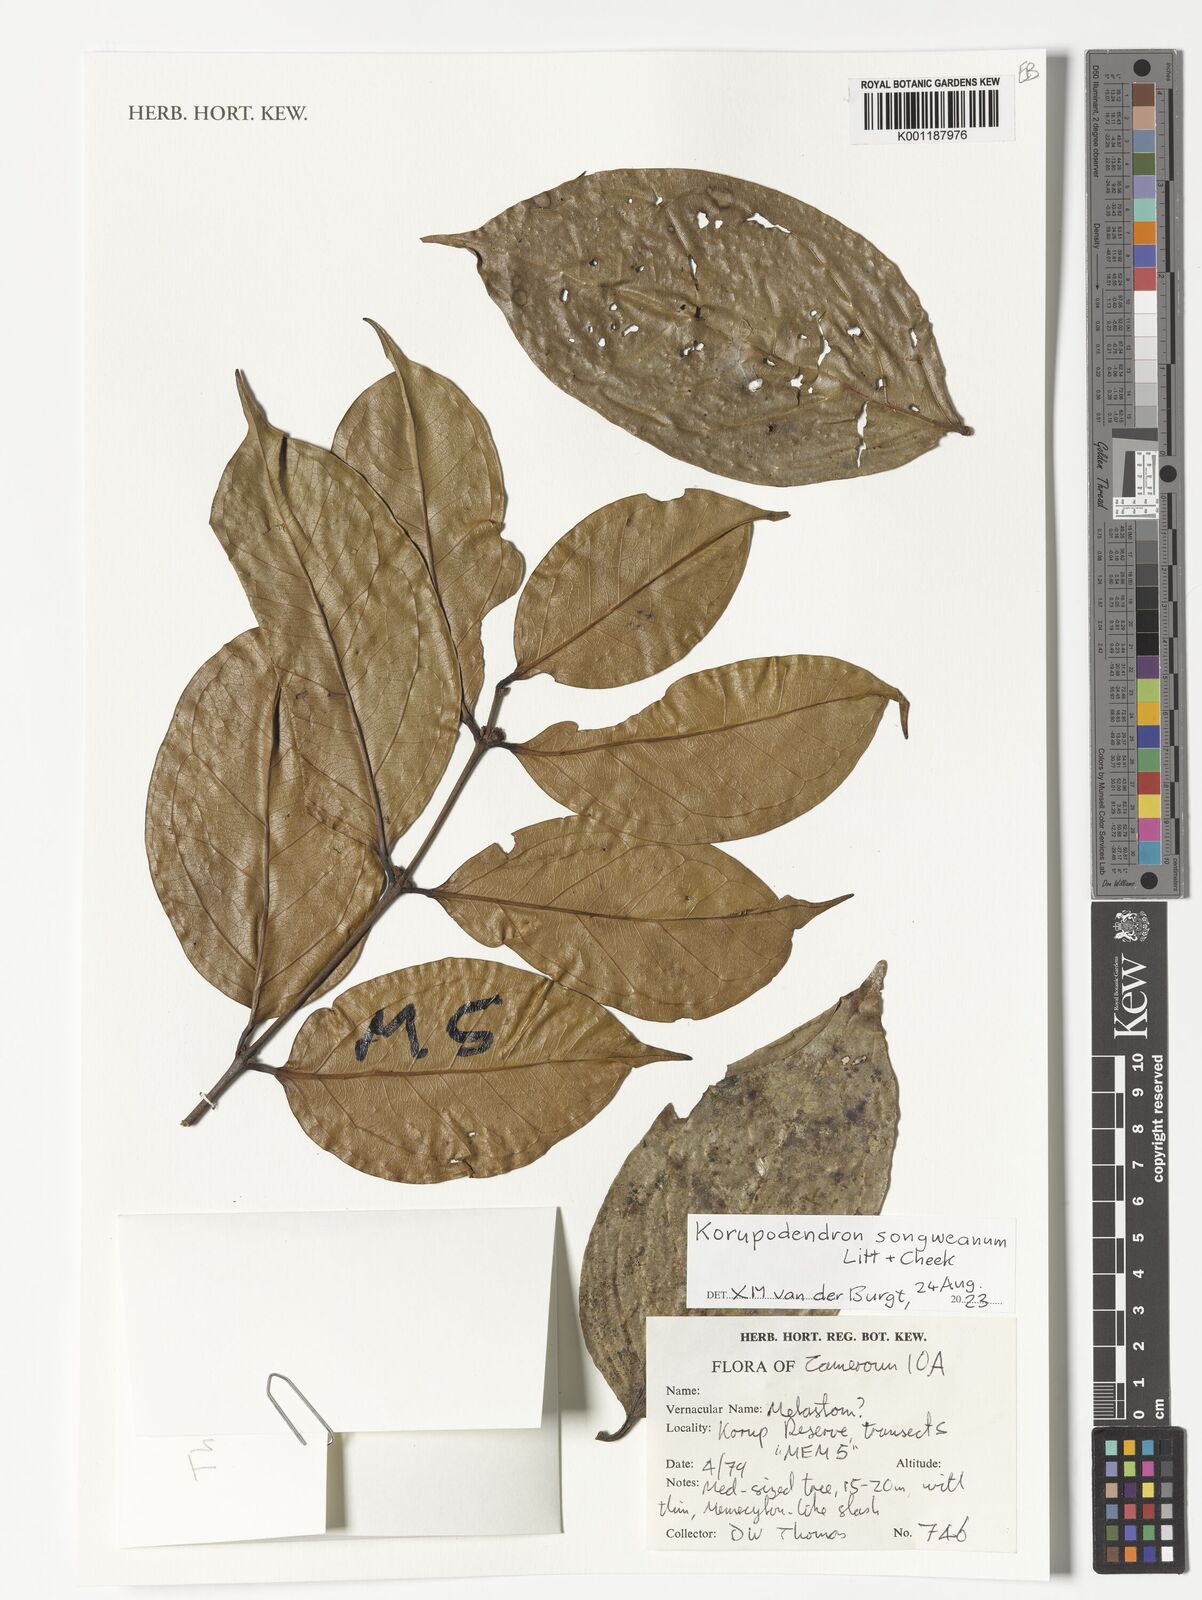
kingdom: Plantae
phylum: Tracheophyta
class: Magnoliopsida
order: Myrtales
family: Vochysiaceae
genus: Korupodendron
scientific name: Korupodendron songweanum
